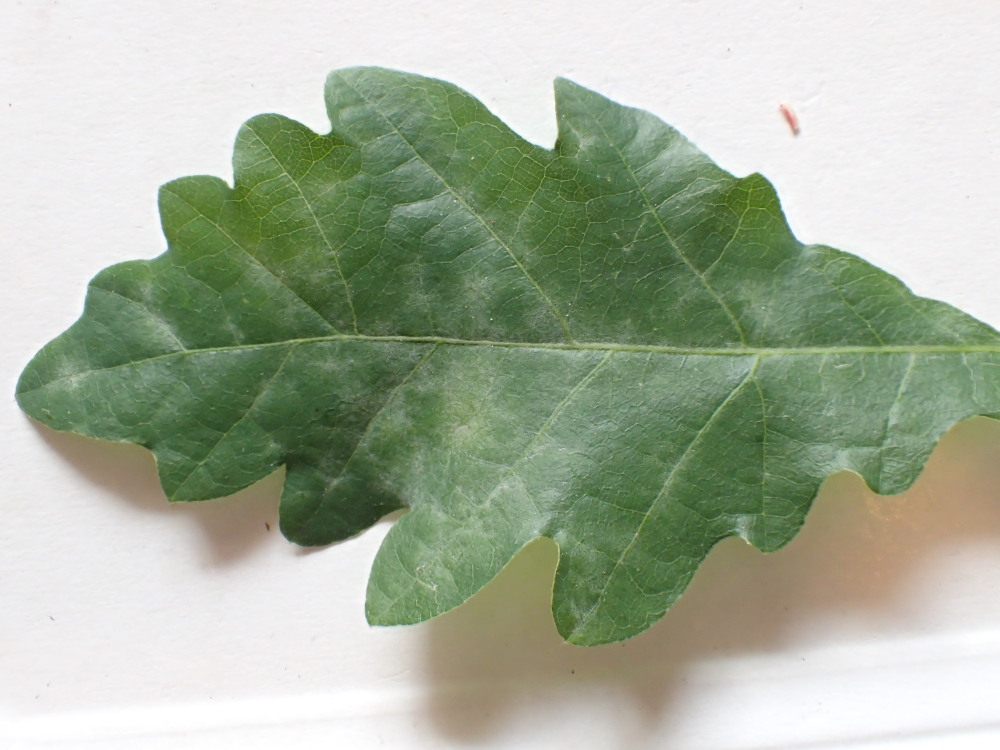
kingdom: Fungi
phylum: Ascomycota
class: Leotiomycetes
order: Helotiales
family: Erysiphaceae
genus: Erysiphe
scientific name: Erysiphe alphitoides
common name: ege-meldug
